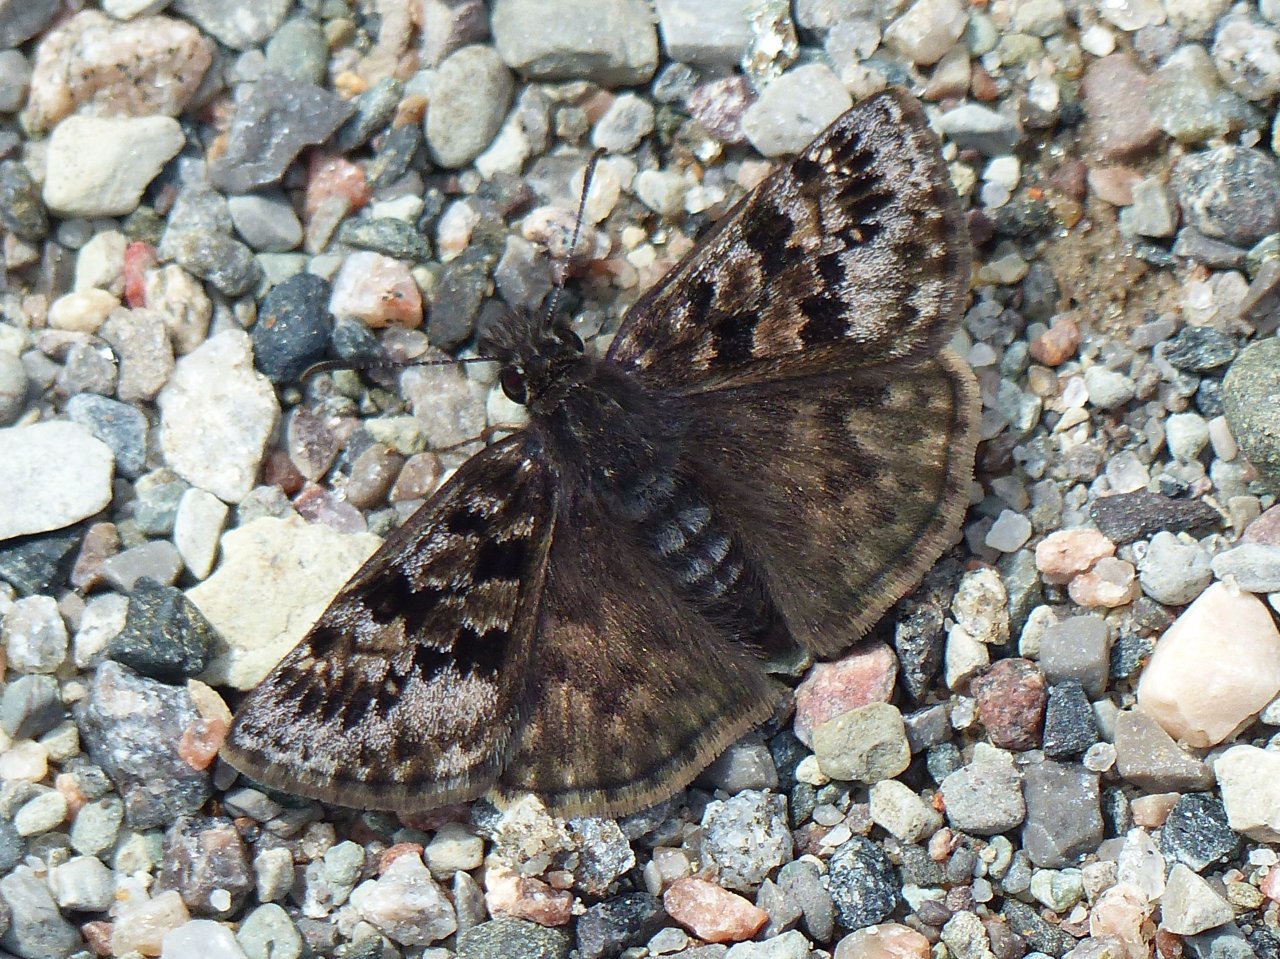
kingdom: Animalia
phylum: Arthropoda
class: Insecta
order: Lepidoptera
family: Hesperiidae
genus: Erynnis
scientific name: Erynnis martialis
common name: Mottled Duskywing
